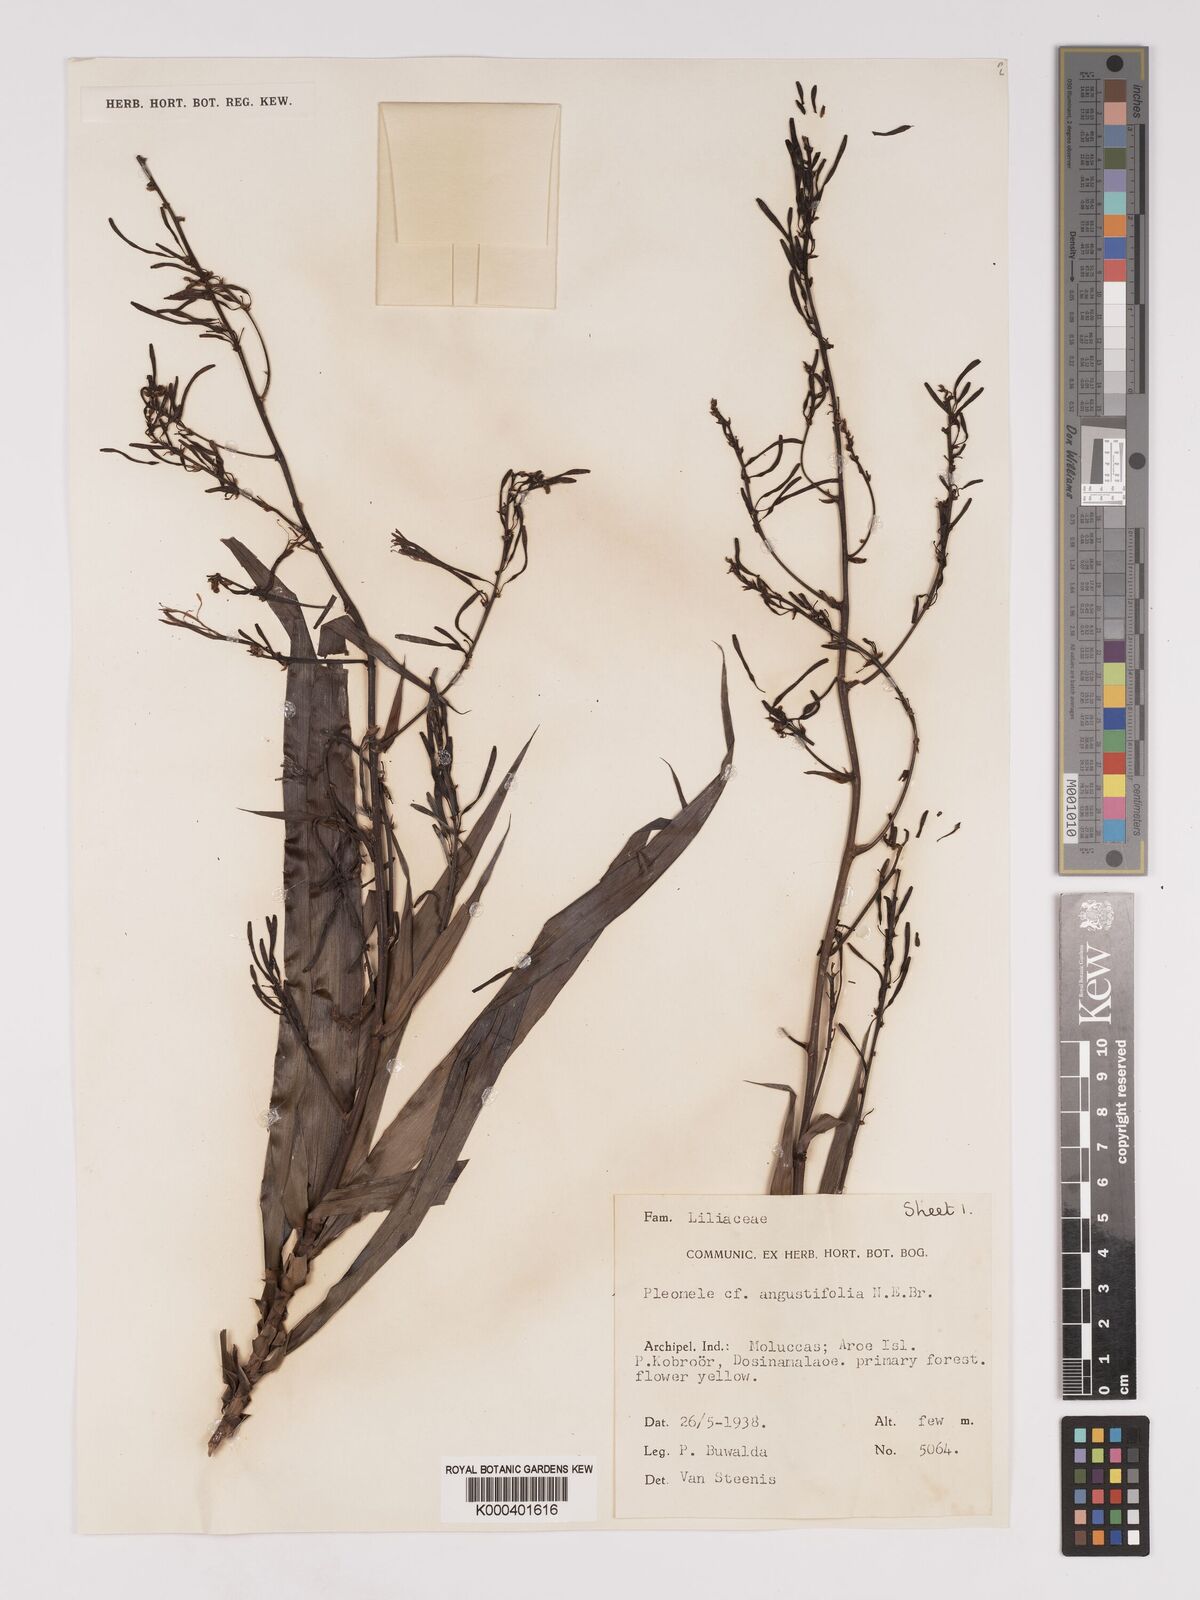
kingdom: Plantae
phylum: Tracheophyta
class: Liliopsida
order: Asparagales
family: Asparagaceae
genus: Dracaena
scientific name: Dracaena angustifolia
